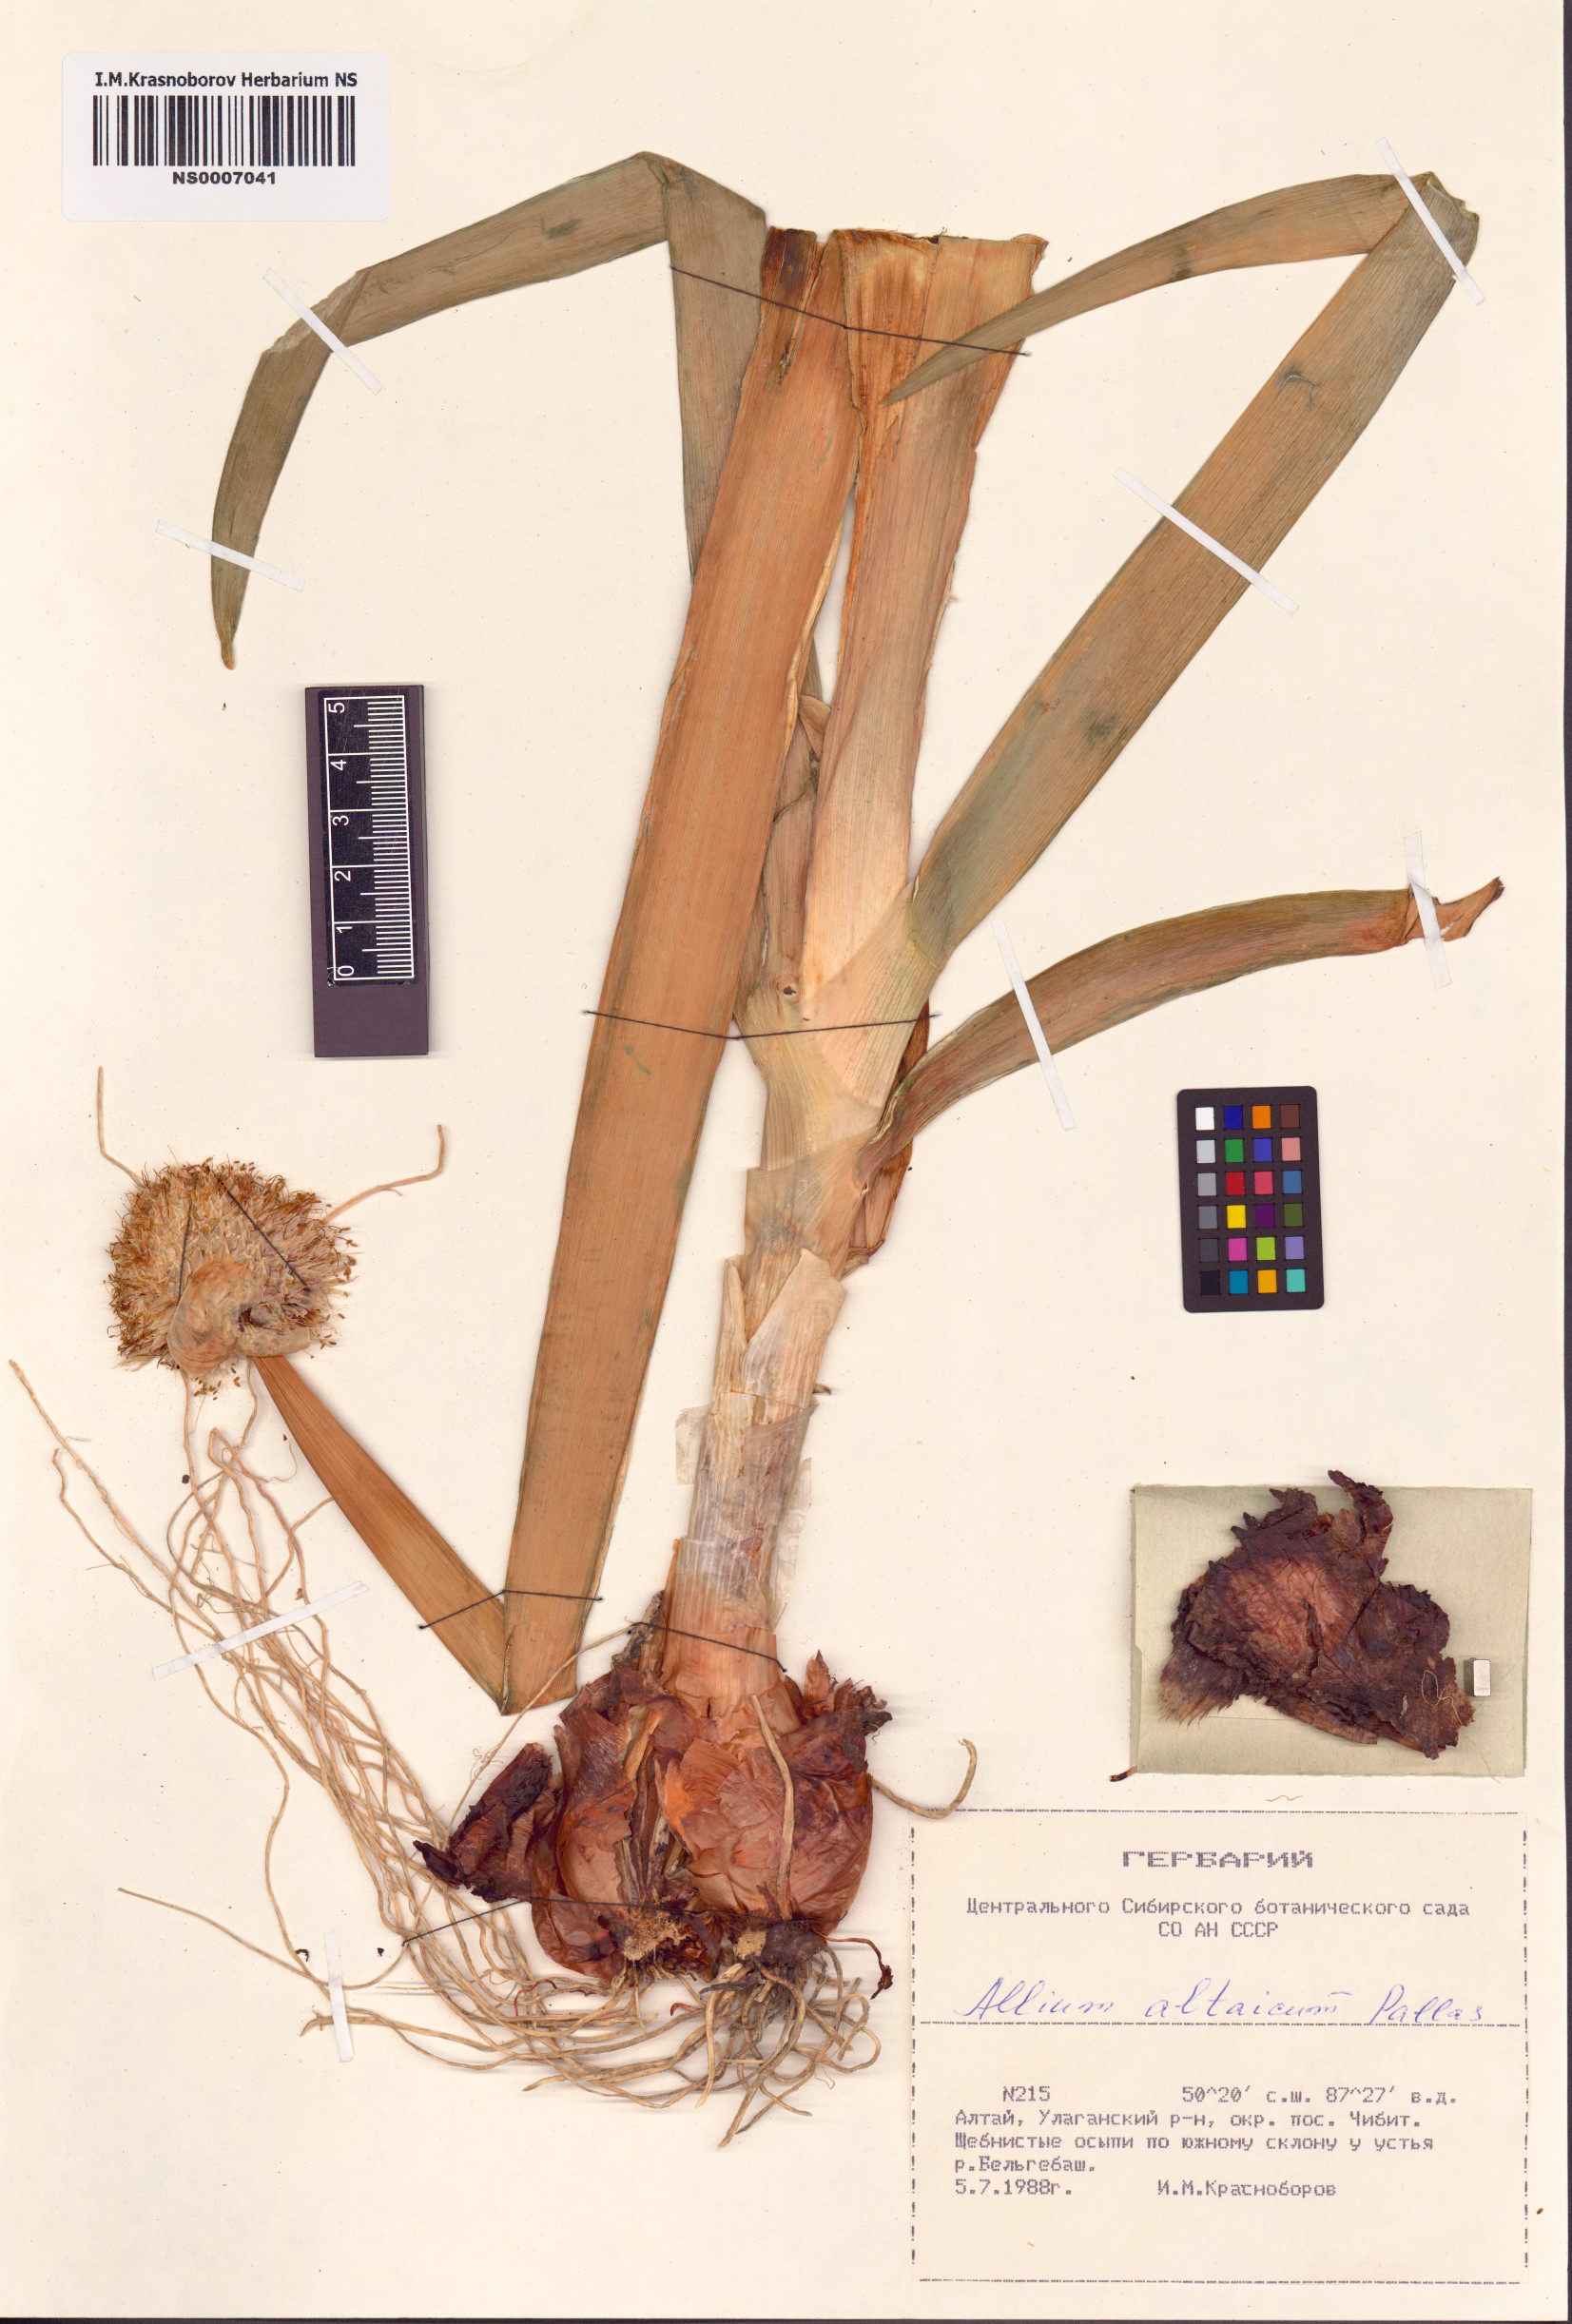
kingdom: Plantae
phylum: Tracheophyta
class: Liliopsida
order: Asparagales
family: Amaryllidaceae
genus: Allium
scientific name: Allium altaicum
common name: Altai onion
